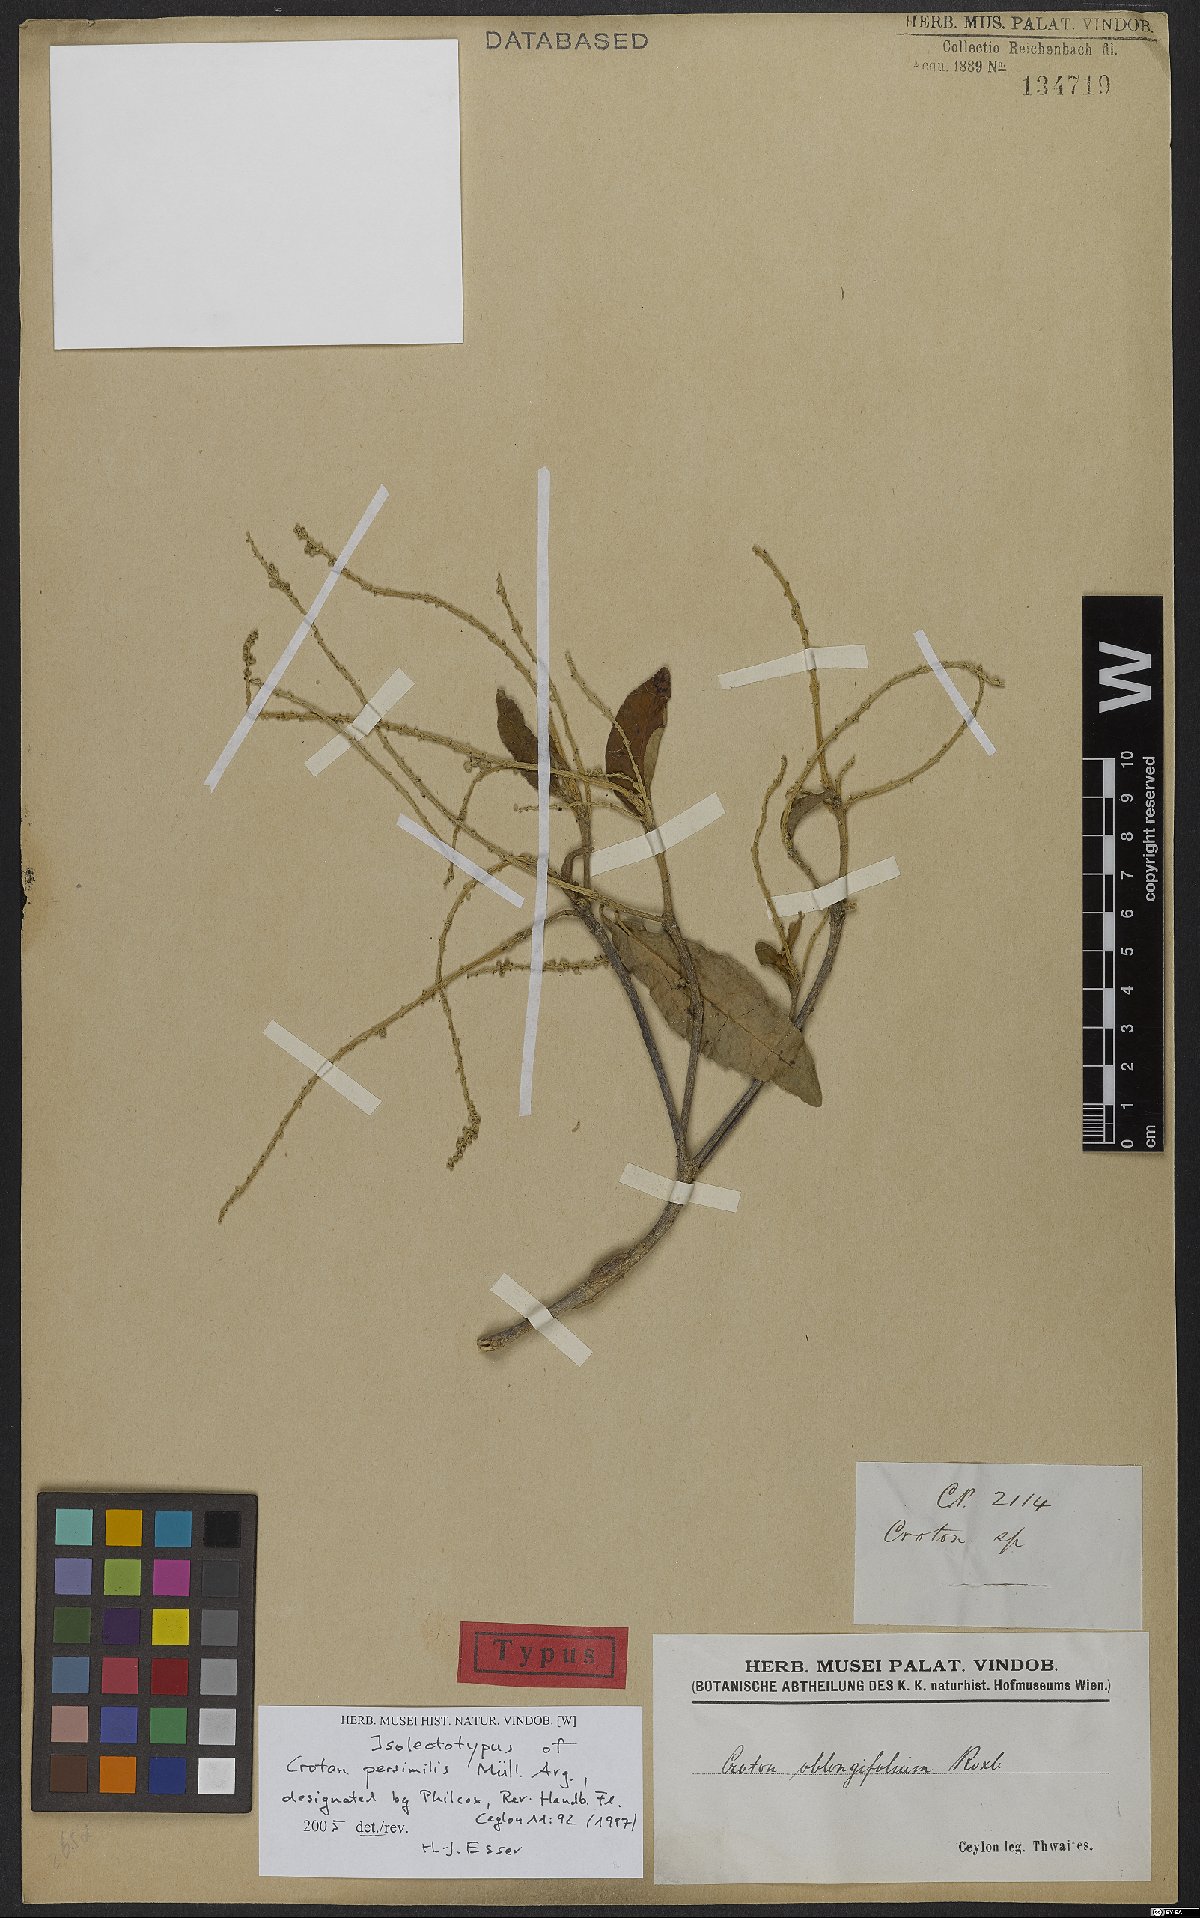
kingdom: Plantae
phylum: Tracheophyta
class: Magnoliopsida
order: Malpighiales
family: Euphorbiaceae
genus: Croton
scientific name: Croton persimilis
